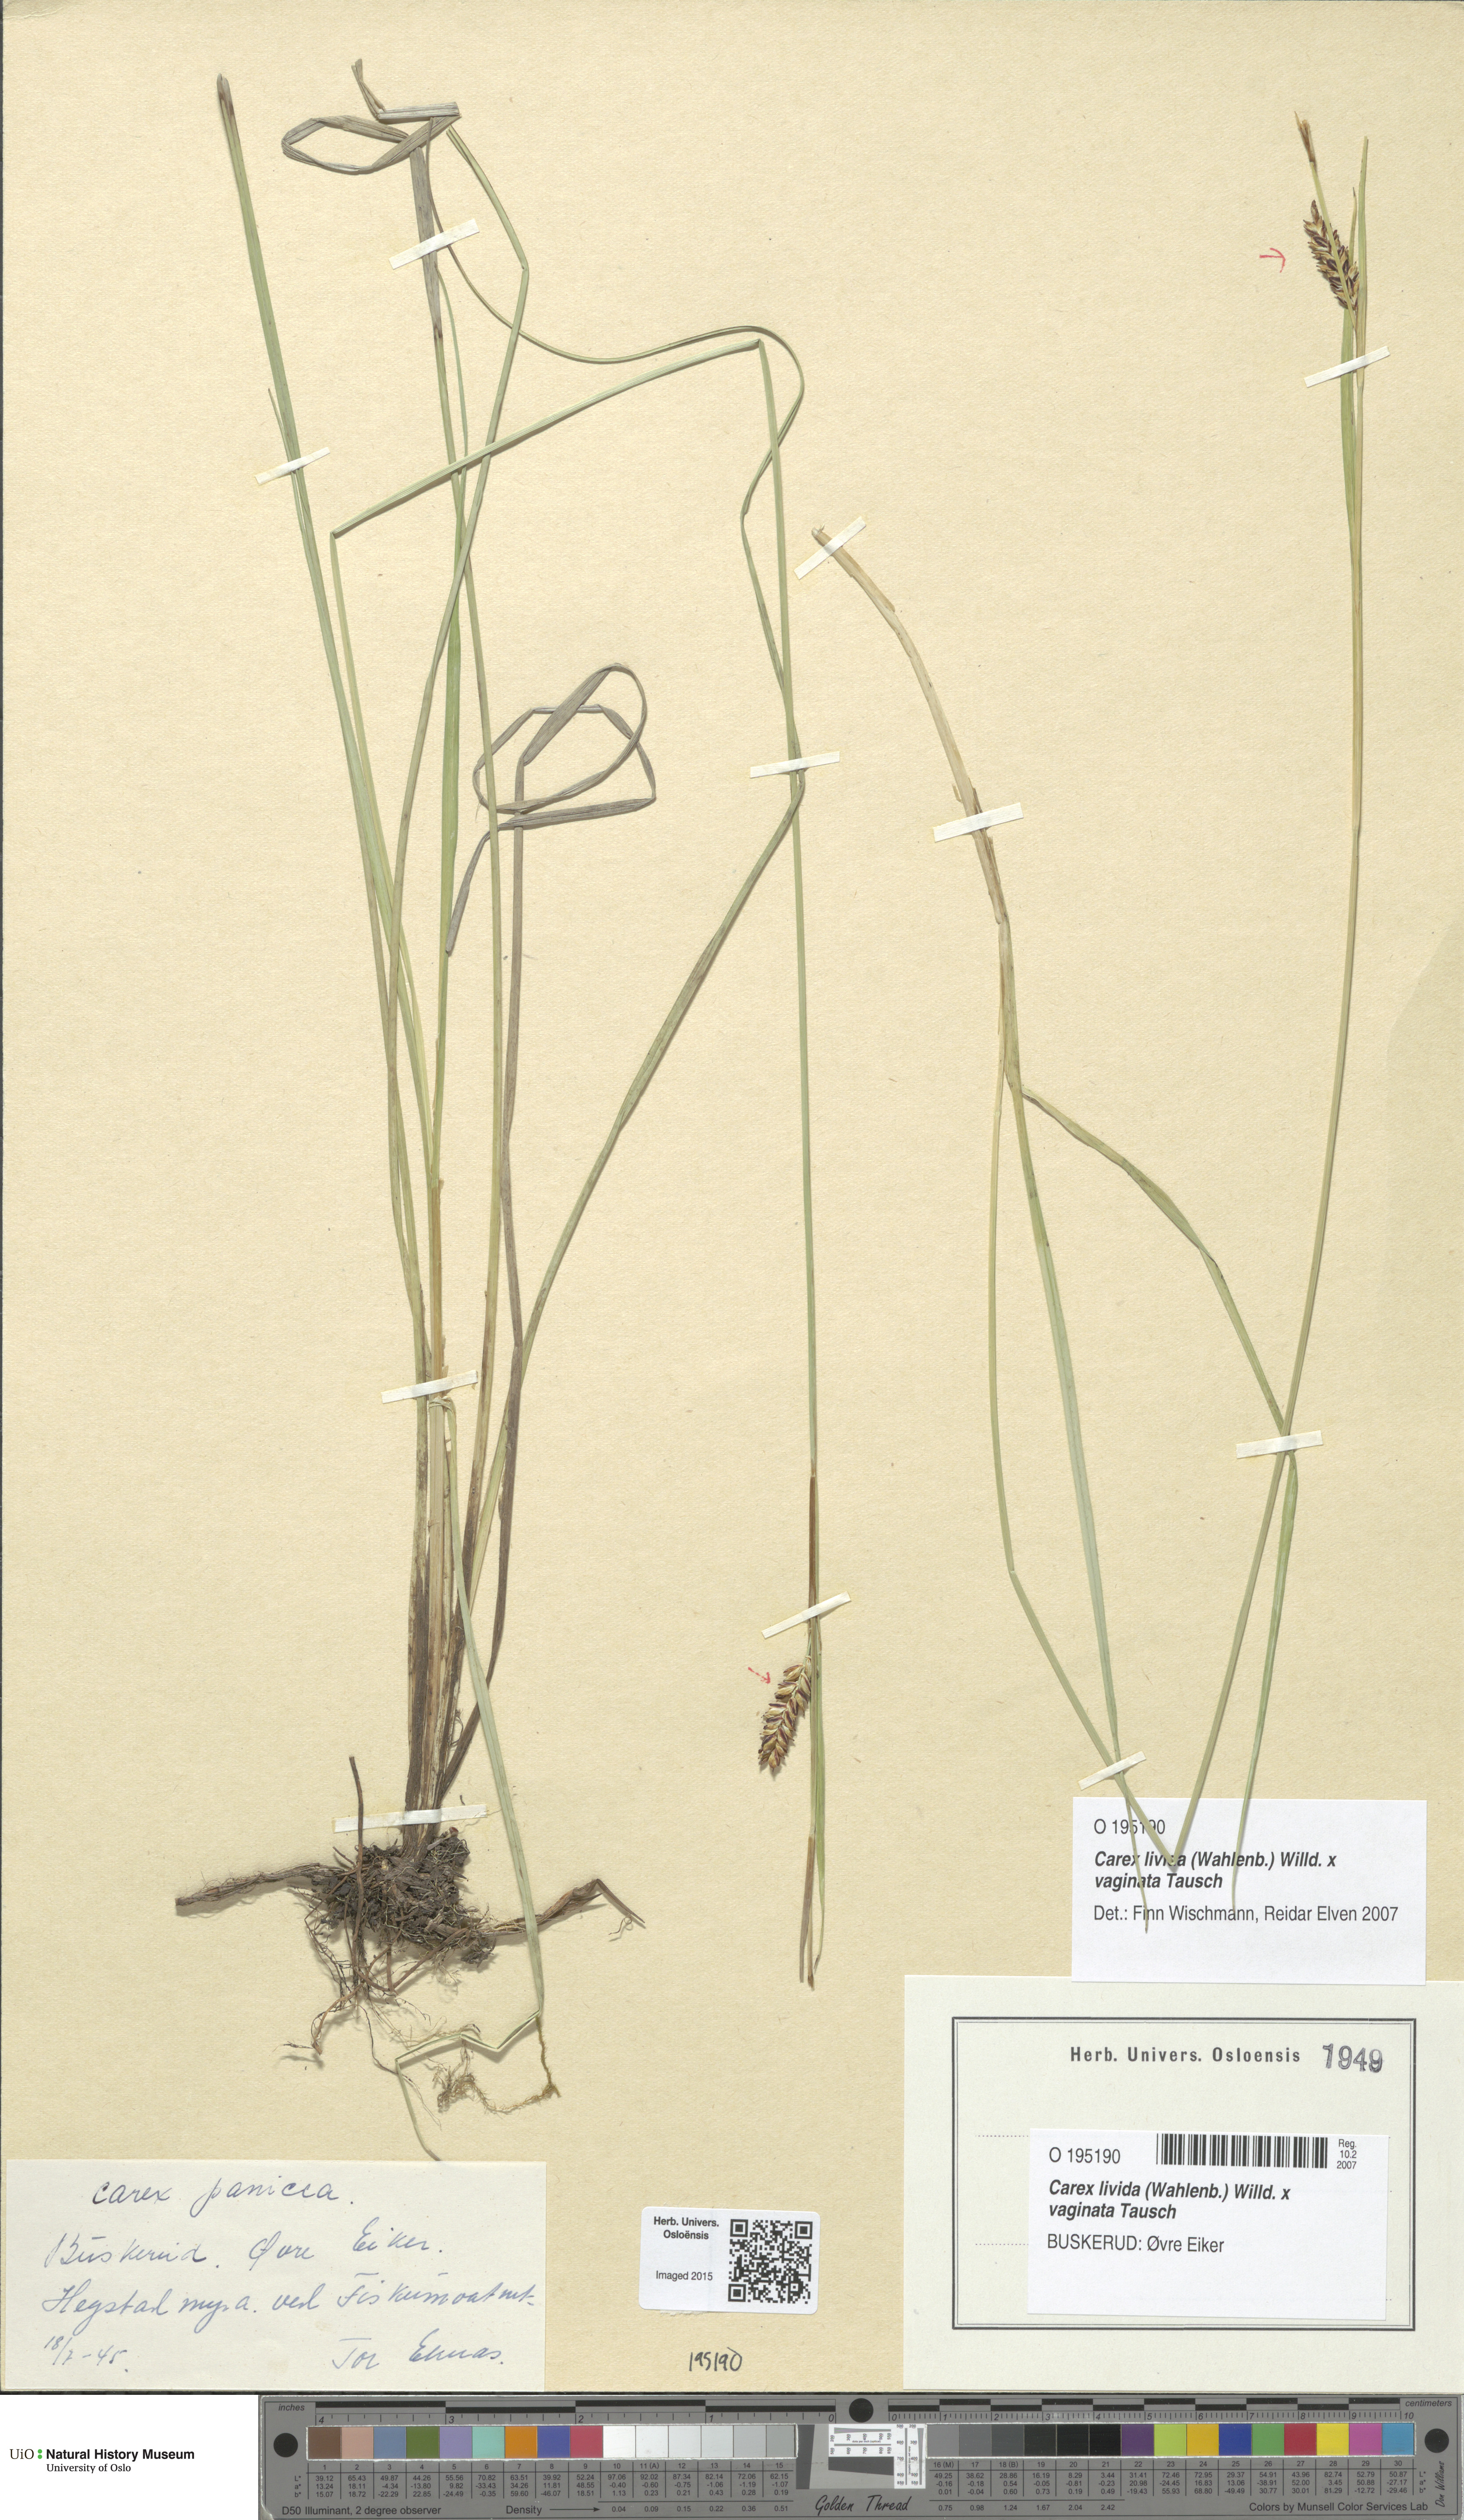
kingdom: Plantae
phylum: Tracheophyta
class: Liliopsida
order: Poales
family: Cyperaceae
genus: Carex
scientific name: Carex
